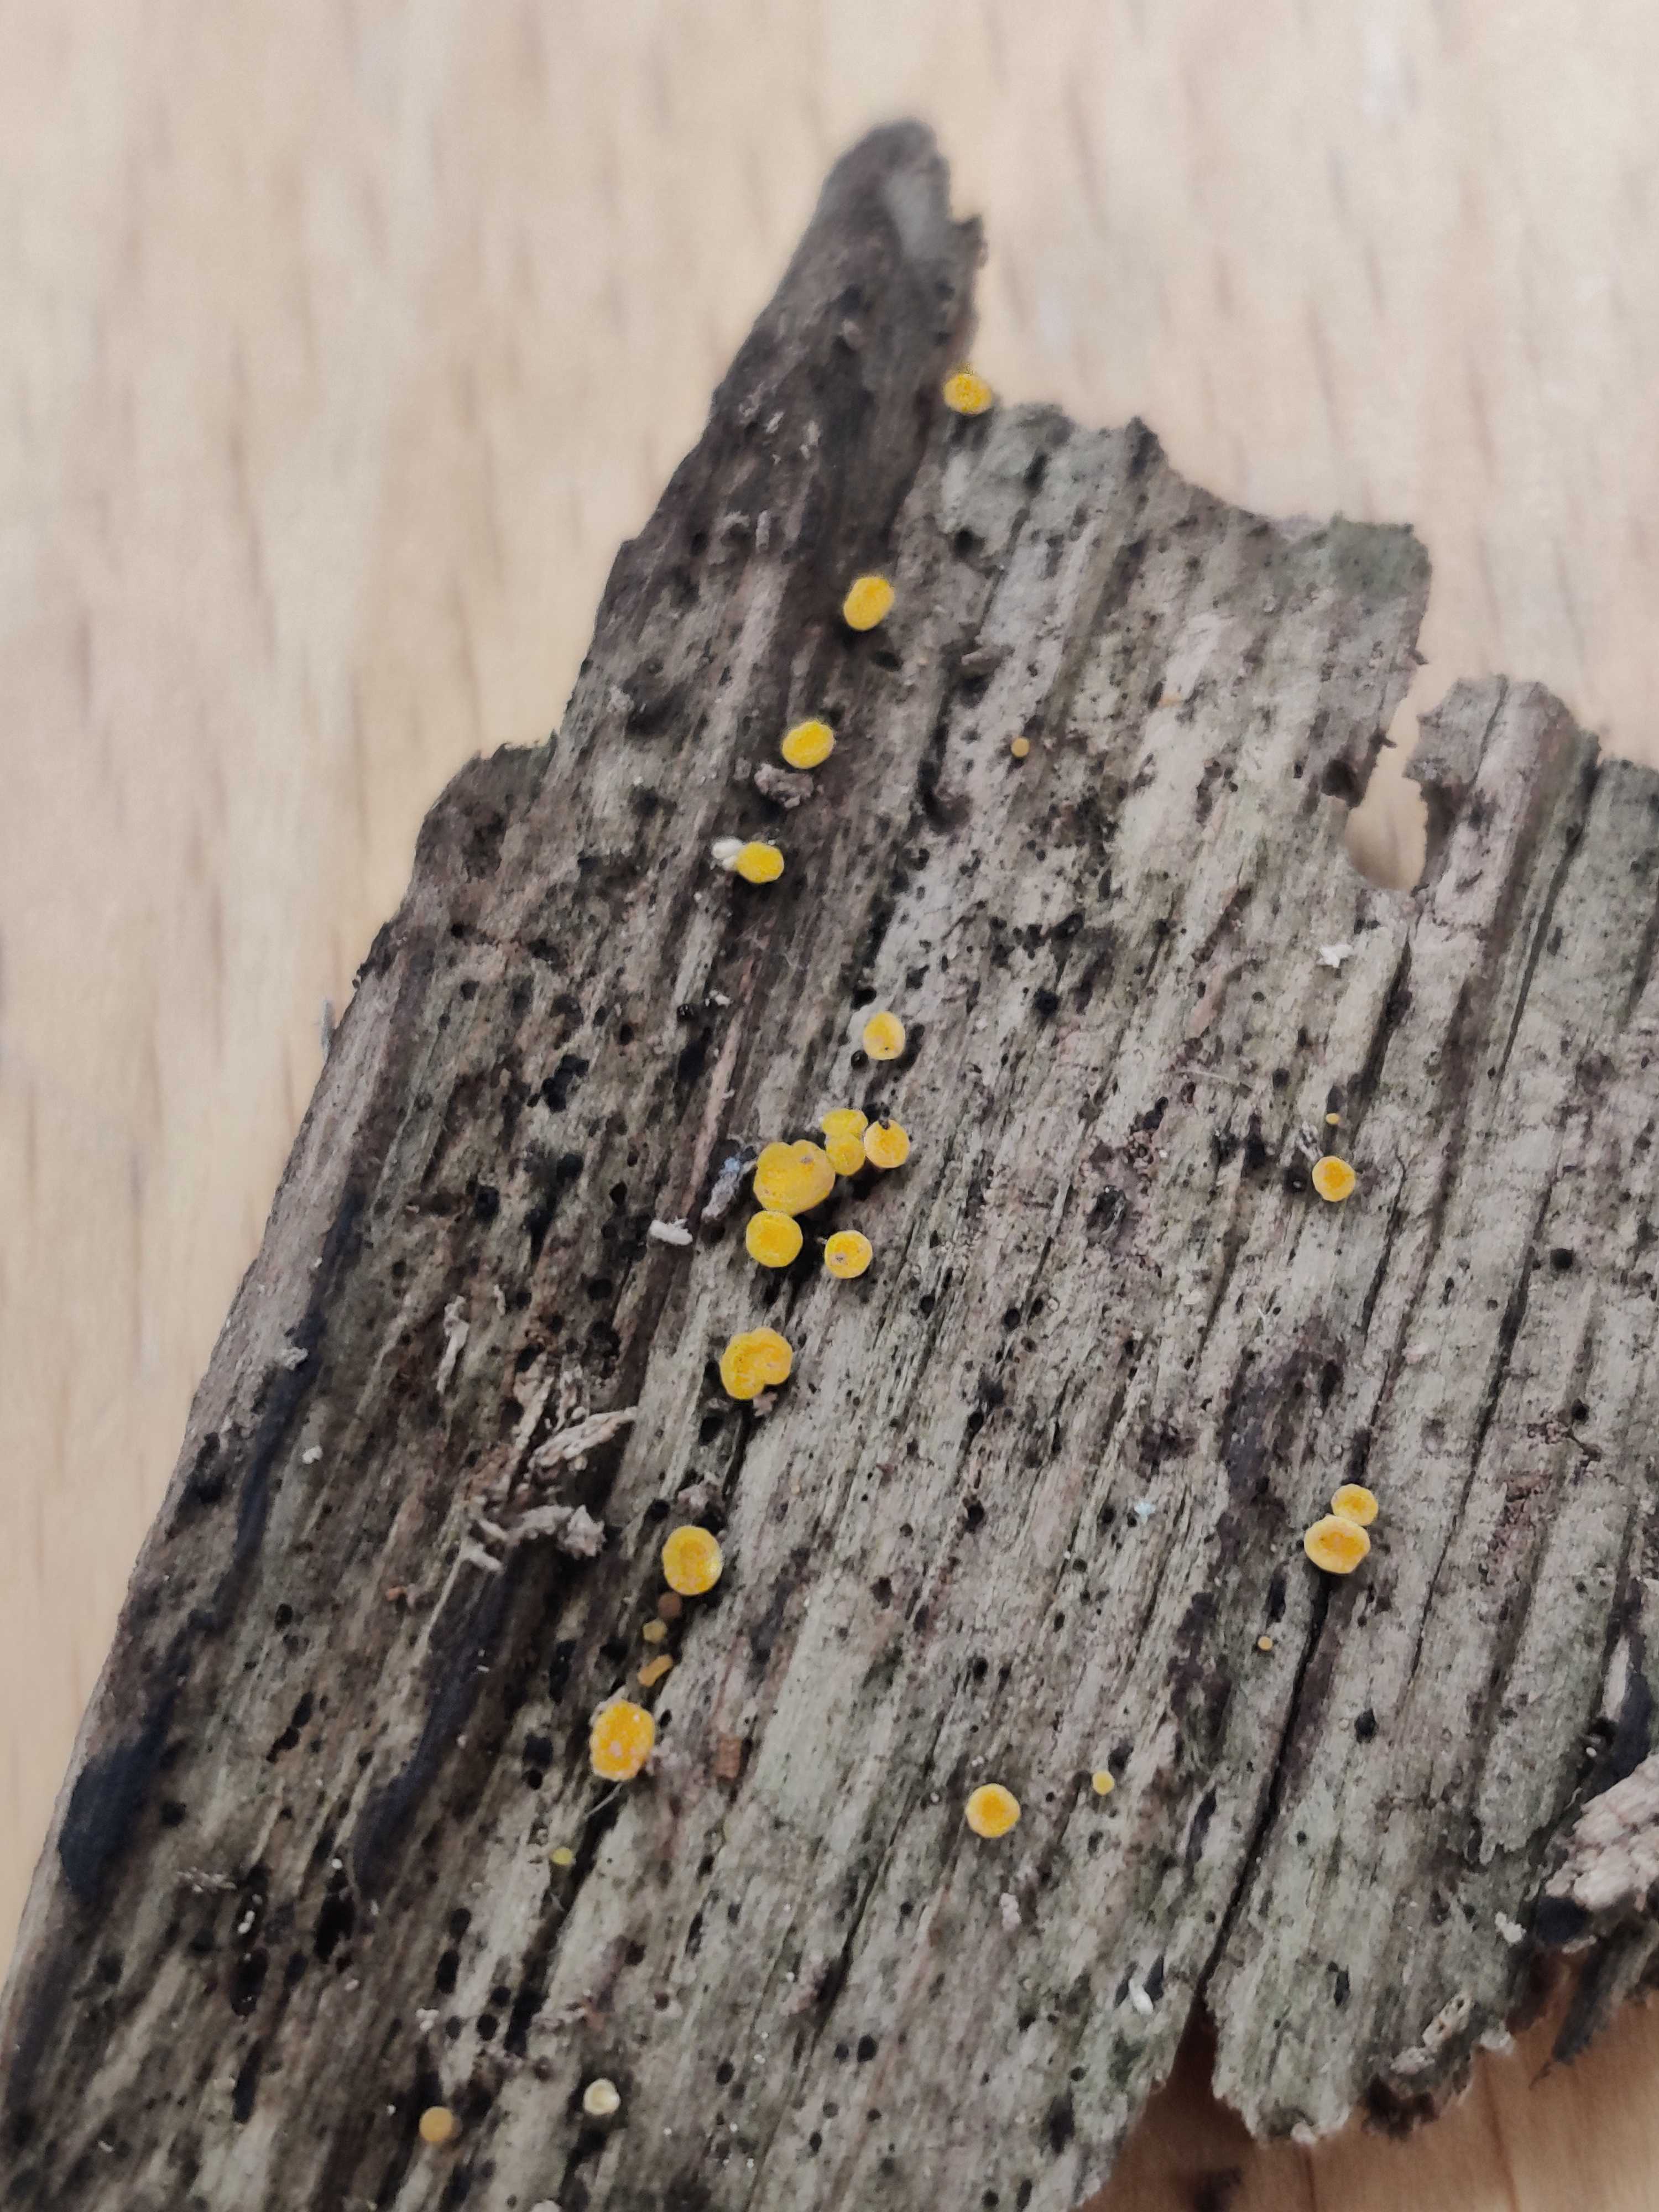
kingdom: Fungi
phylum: Ascomycota
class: Leotiomycetes
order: Helotiales
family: Pezizellaceae
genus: Calycina
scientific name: Calycina citrina
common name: almindelig gulskive
